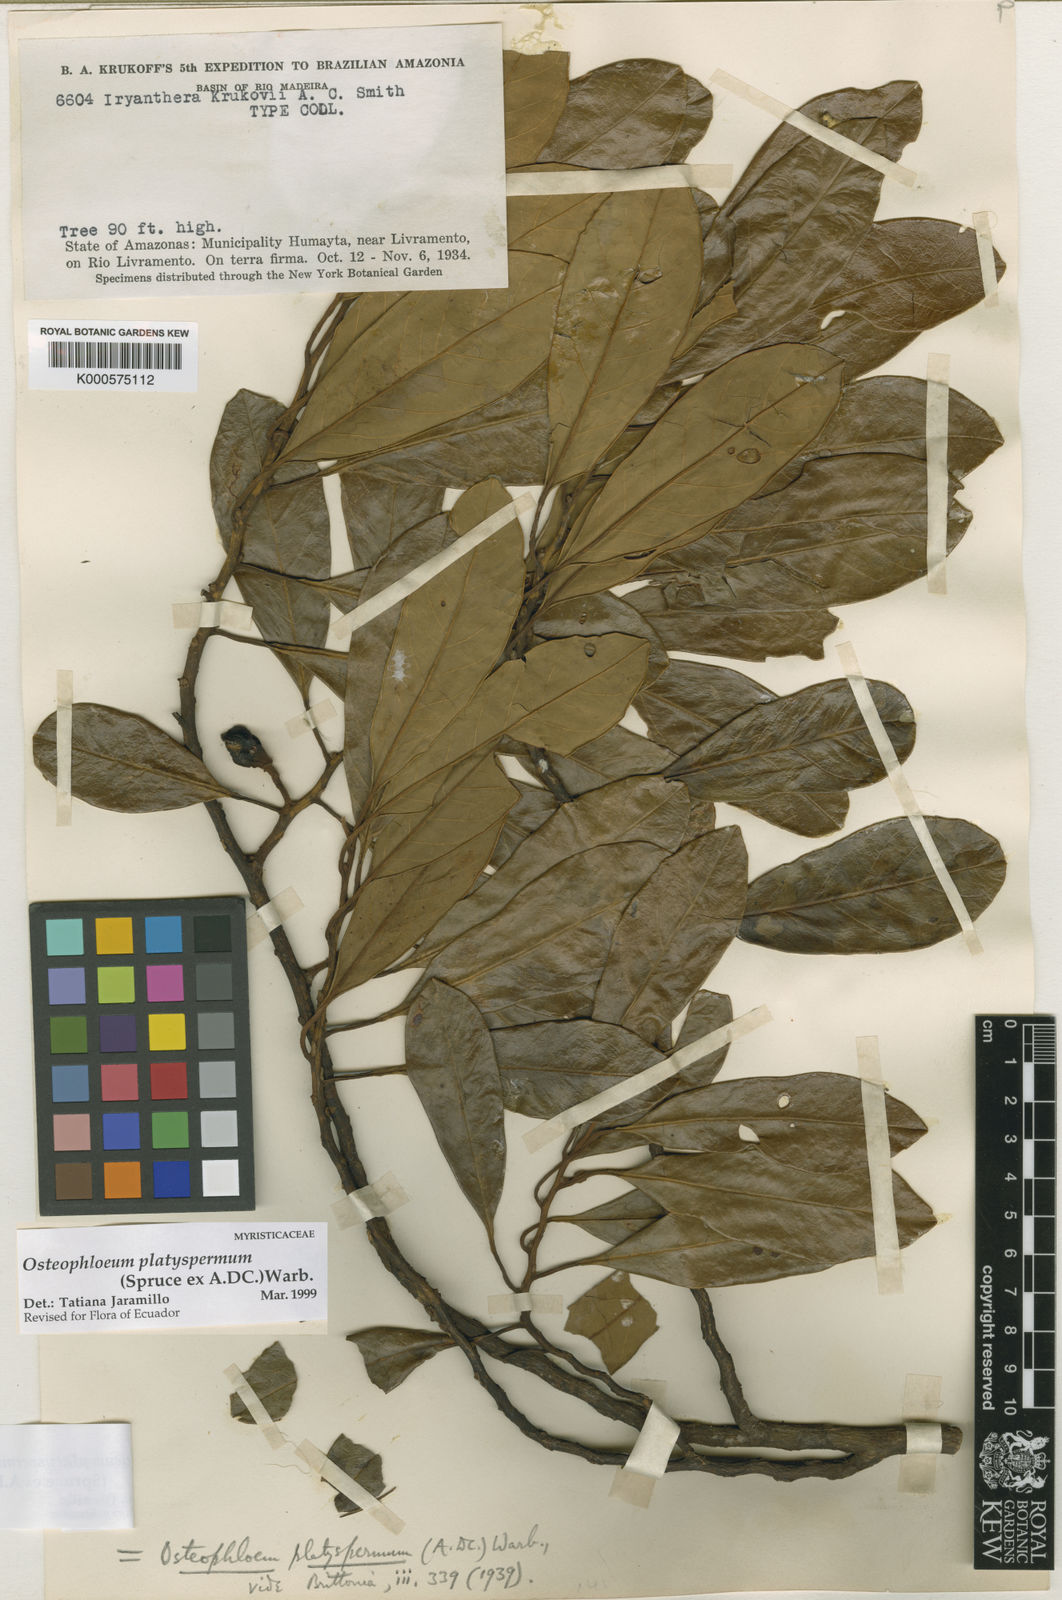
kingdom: Plantae
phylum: Tracheophyta
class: Magnoliopsida
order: Magnoliales
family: Myristicaceae
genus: Osteophloeum
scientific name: Osteophloeum platyspermum
